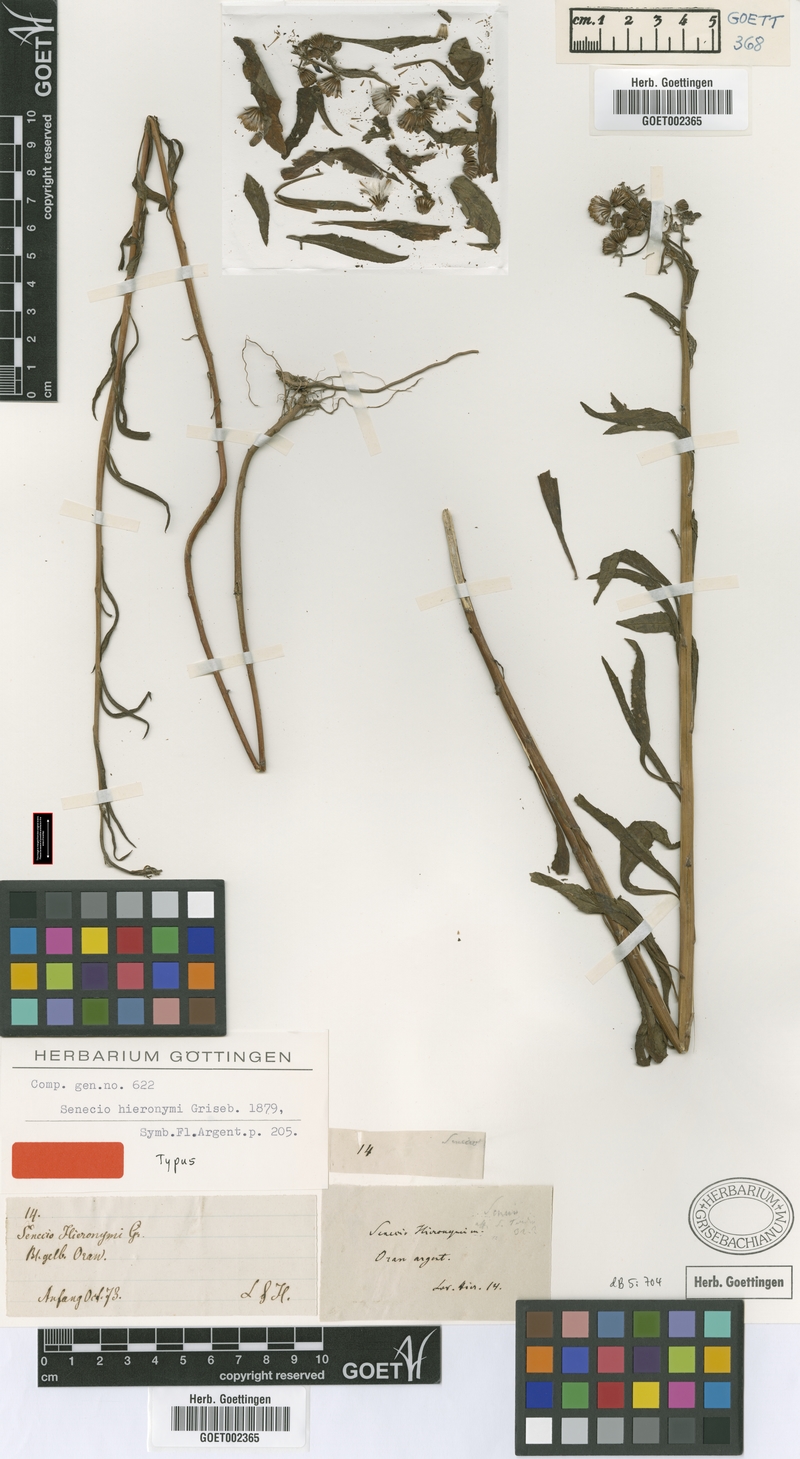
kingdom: Plantae
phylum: Tracheophyta
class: Magnoliopsida
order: Asterales
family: Asteraceae
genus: Senecio
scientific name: Senecio hieronymi
